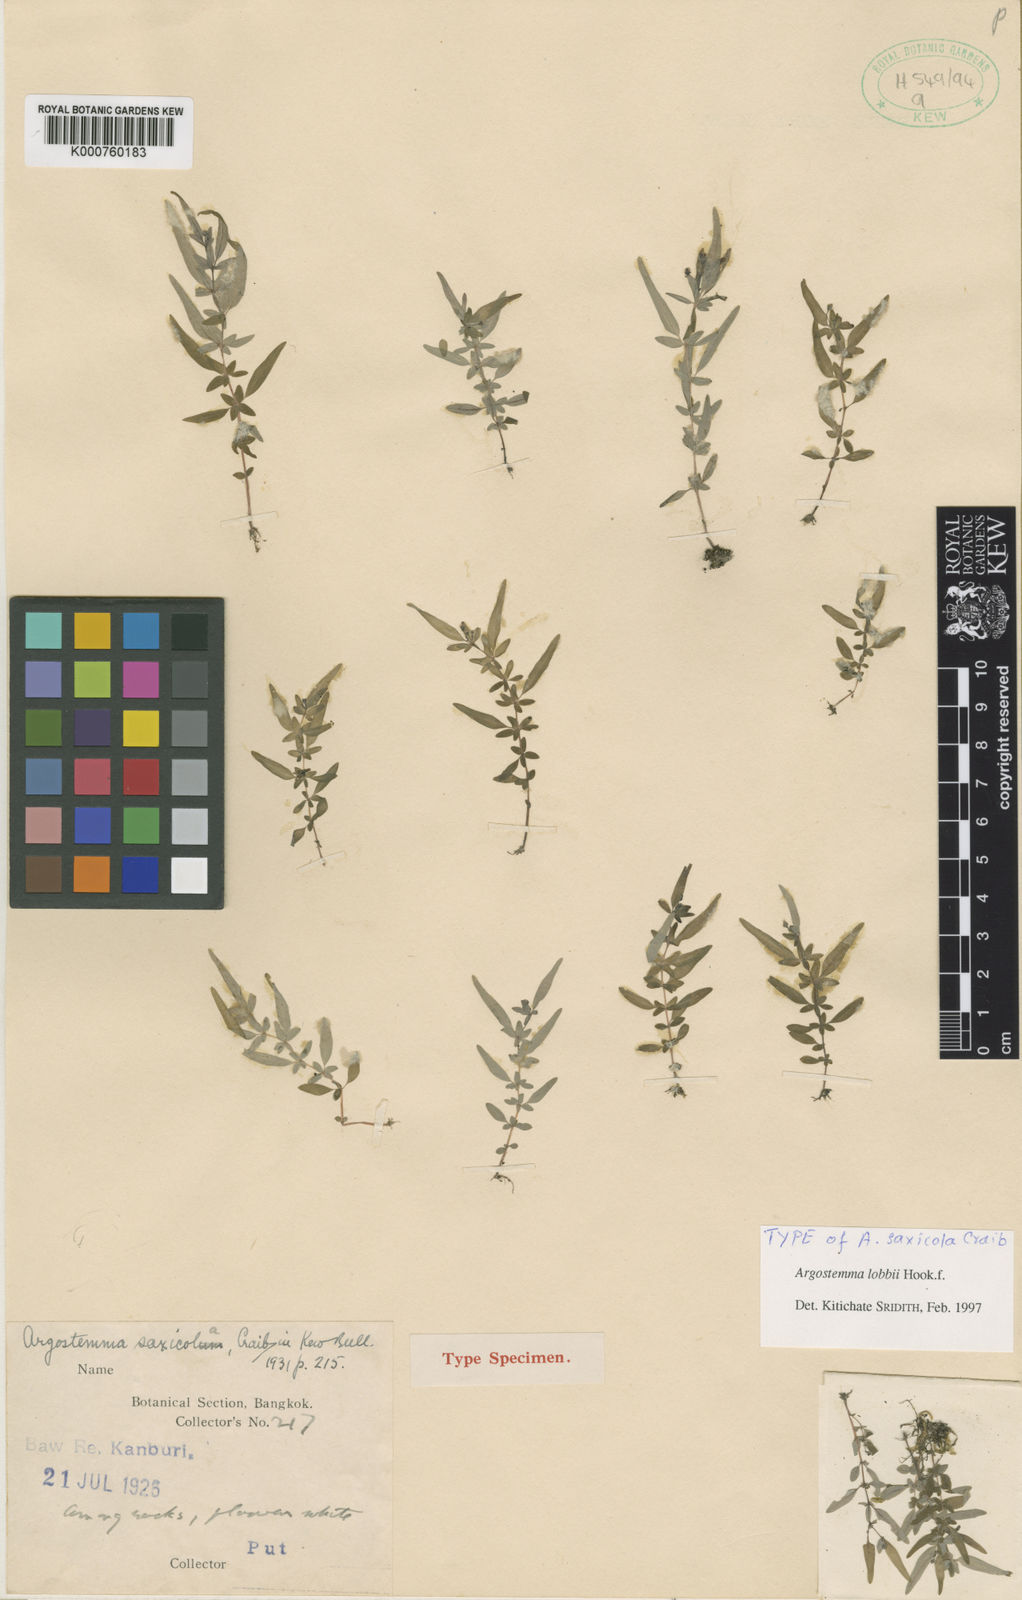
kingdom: Plantae
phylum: Tracheophyta
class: Magnoliopsida
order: Gentianales
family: Rubiaceae
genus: Argostemma
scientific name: Argostemma lobbii
